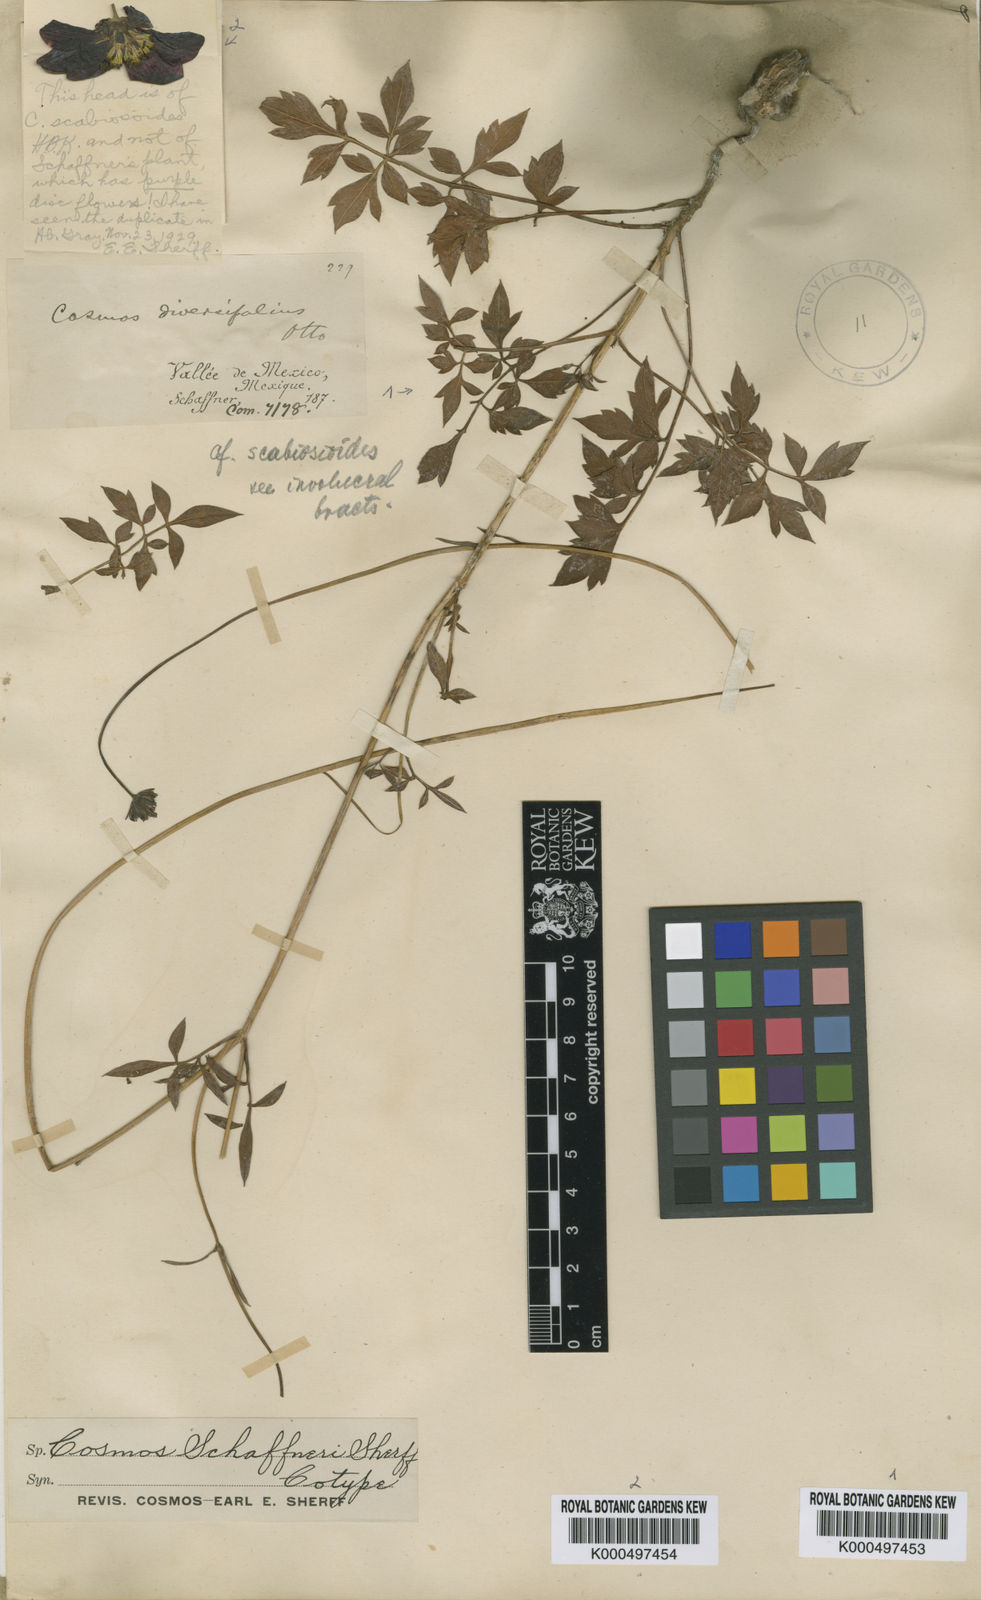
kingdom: Plantae
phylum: Tracheophyta
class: Magnoliopsida
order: Asterales
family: Asteraceae
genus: Cosmos
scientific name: Cosmos schaffneri
